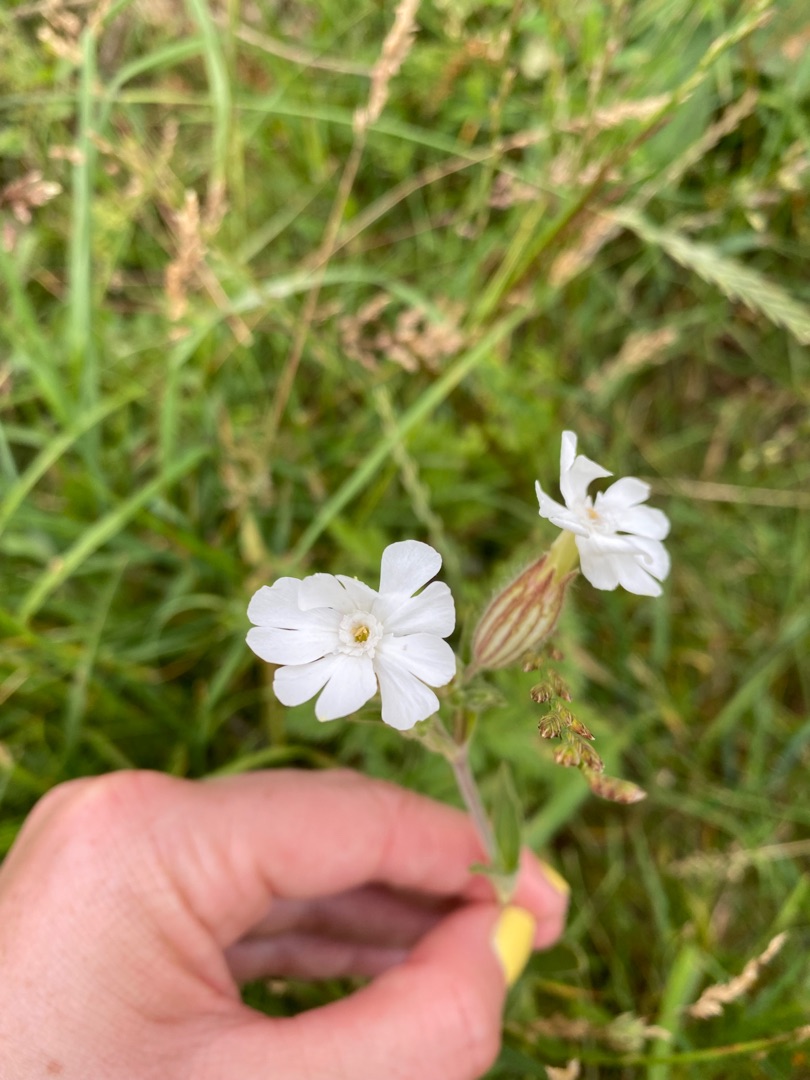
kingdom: Plantae
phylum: Tracheophyta
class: Magnoliopsida
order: Caryophyllales
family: Caryophyllaceae
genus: Silene
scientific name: Silene latifolia
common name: Aftenpragtstjerne
